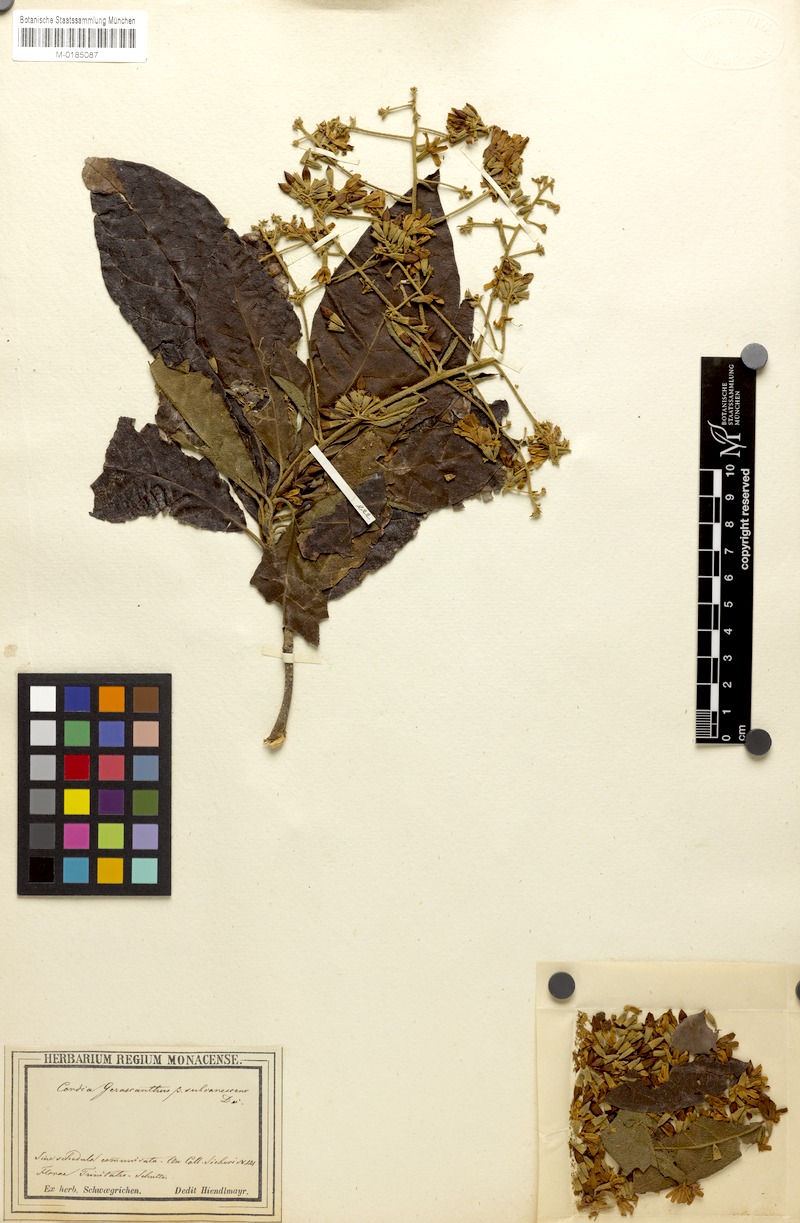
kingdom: Plantae
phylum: Tracheophyta
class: Magnoliopsida
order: Boraginales
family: Cordiaceae
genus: Cordia
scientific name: Cordia gerascanthus
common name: Baria
